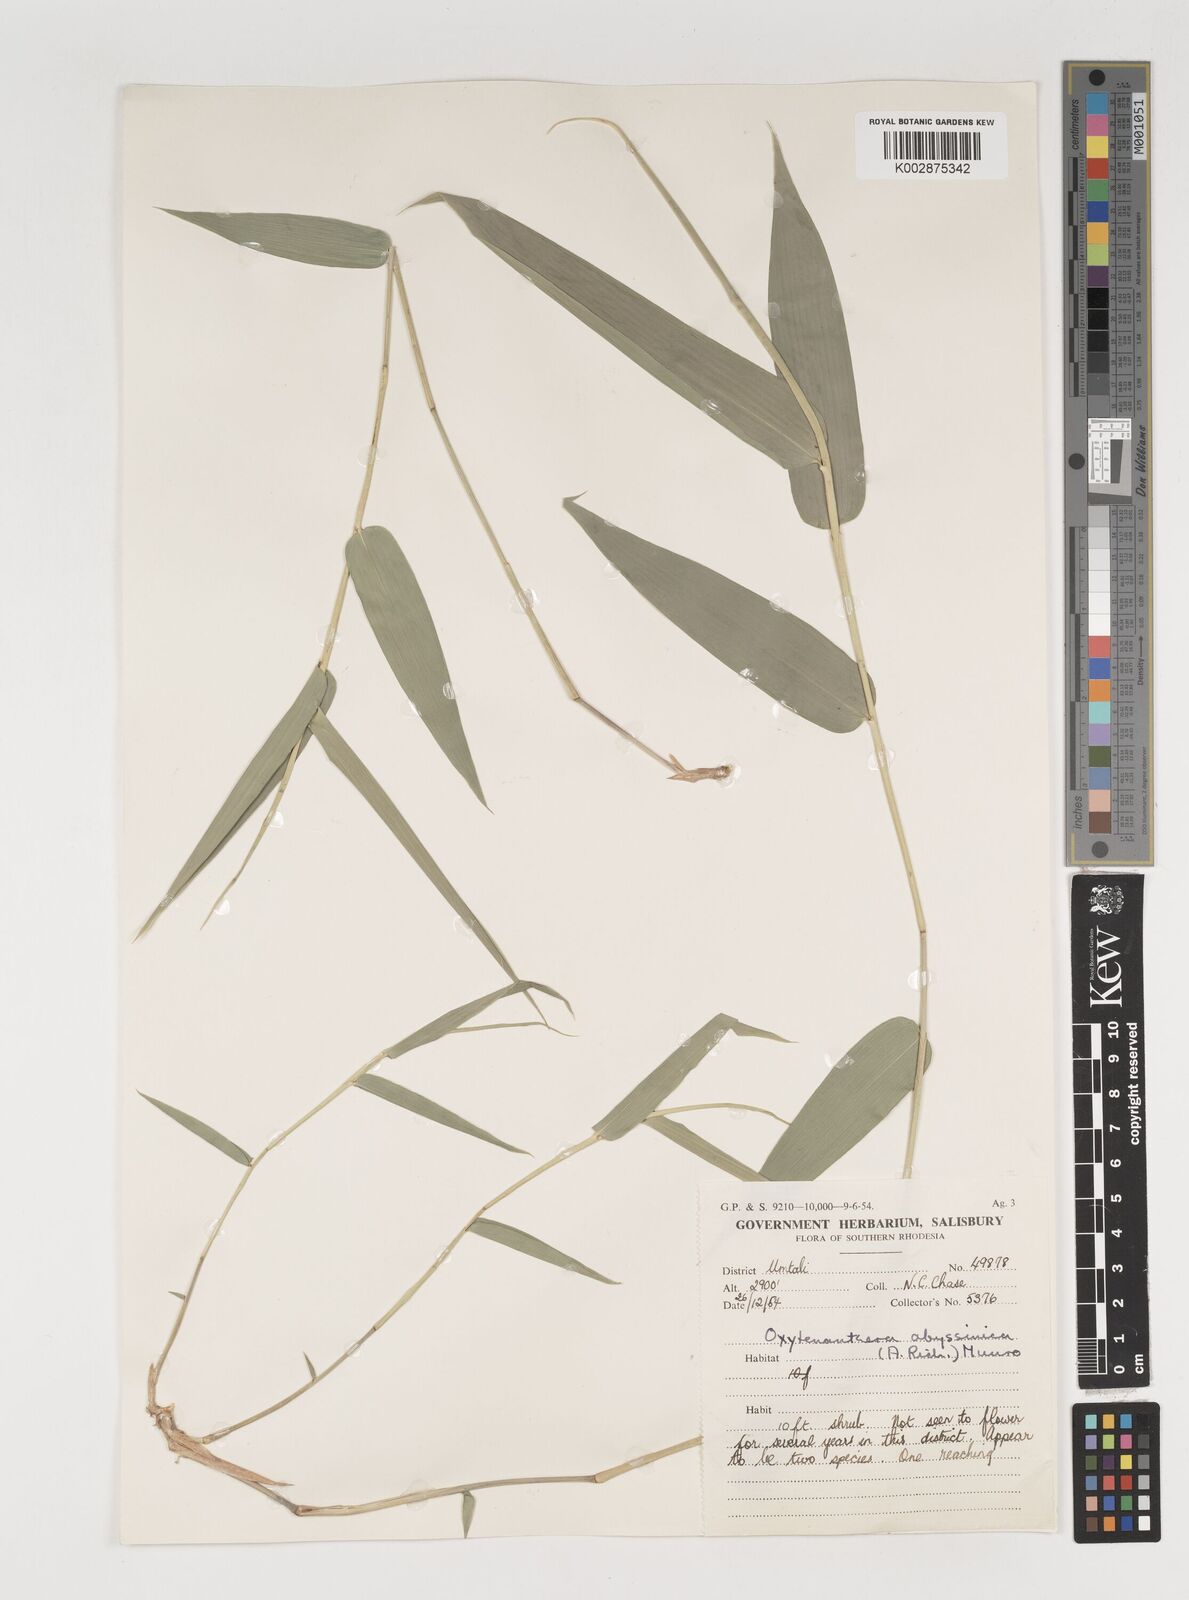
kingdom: Plantae
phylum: Tracheophyta
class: Liliopsida
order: Poales
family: Poaceae
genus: Oxytenanthera
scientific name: Oxytenanthera abyssinica
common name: Wine bamboo
